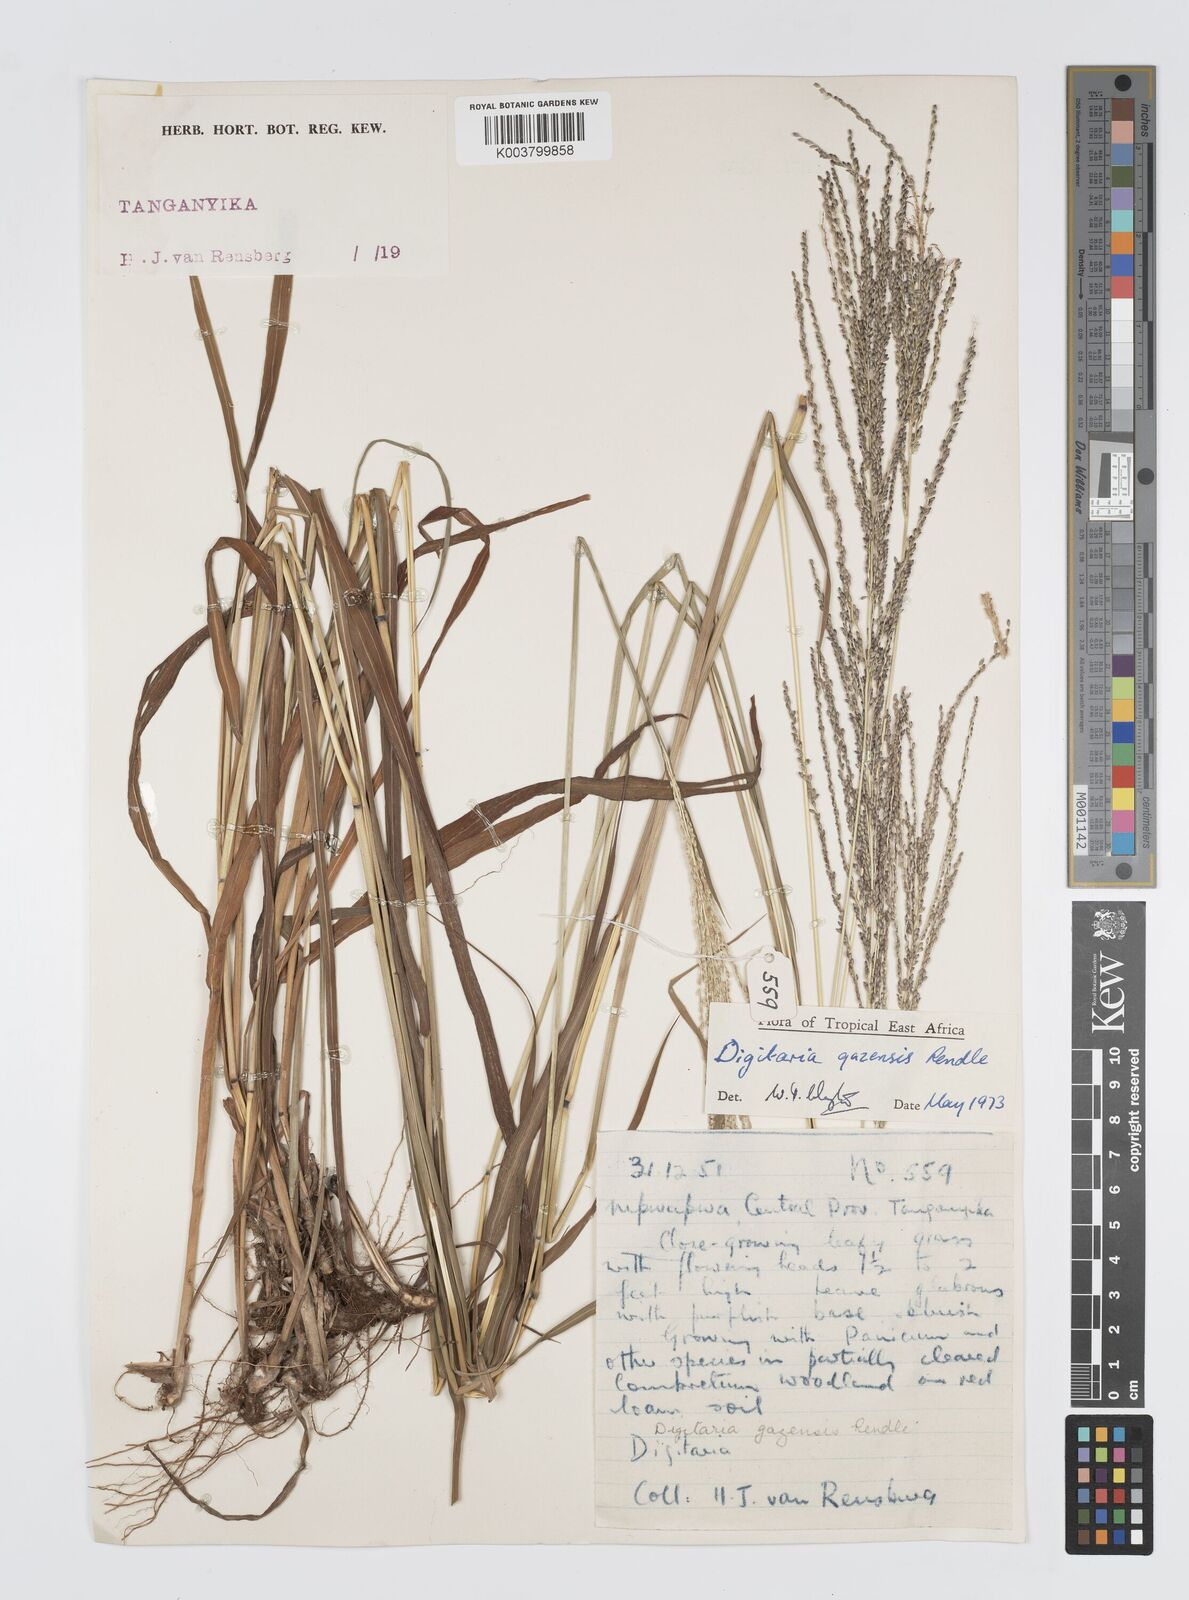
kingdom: Plantae
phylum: Tracheophyta
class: Liliopsida
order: Poales
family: Poaceae
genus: Digitaria
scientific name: Digitaria gazensis
